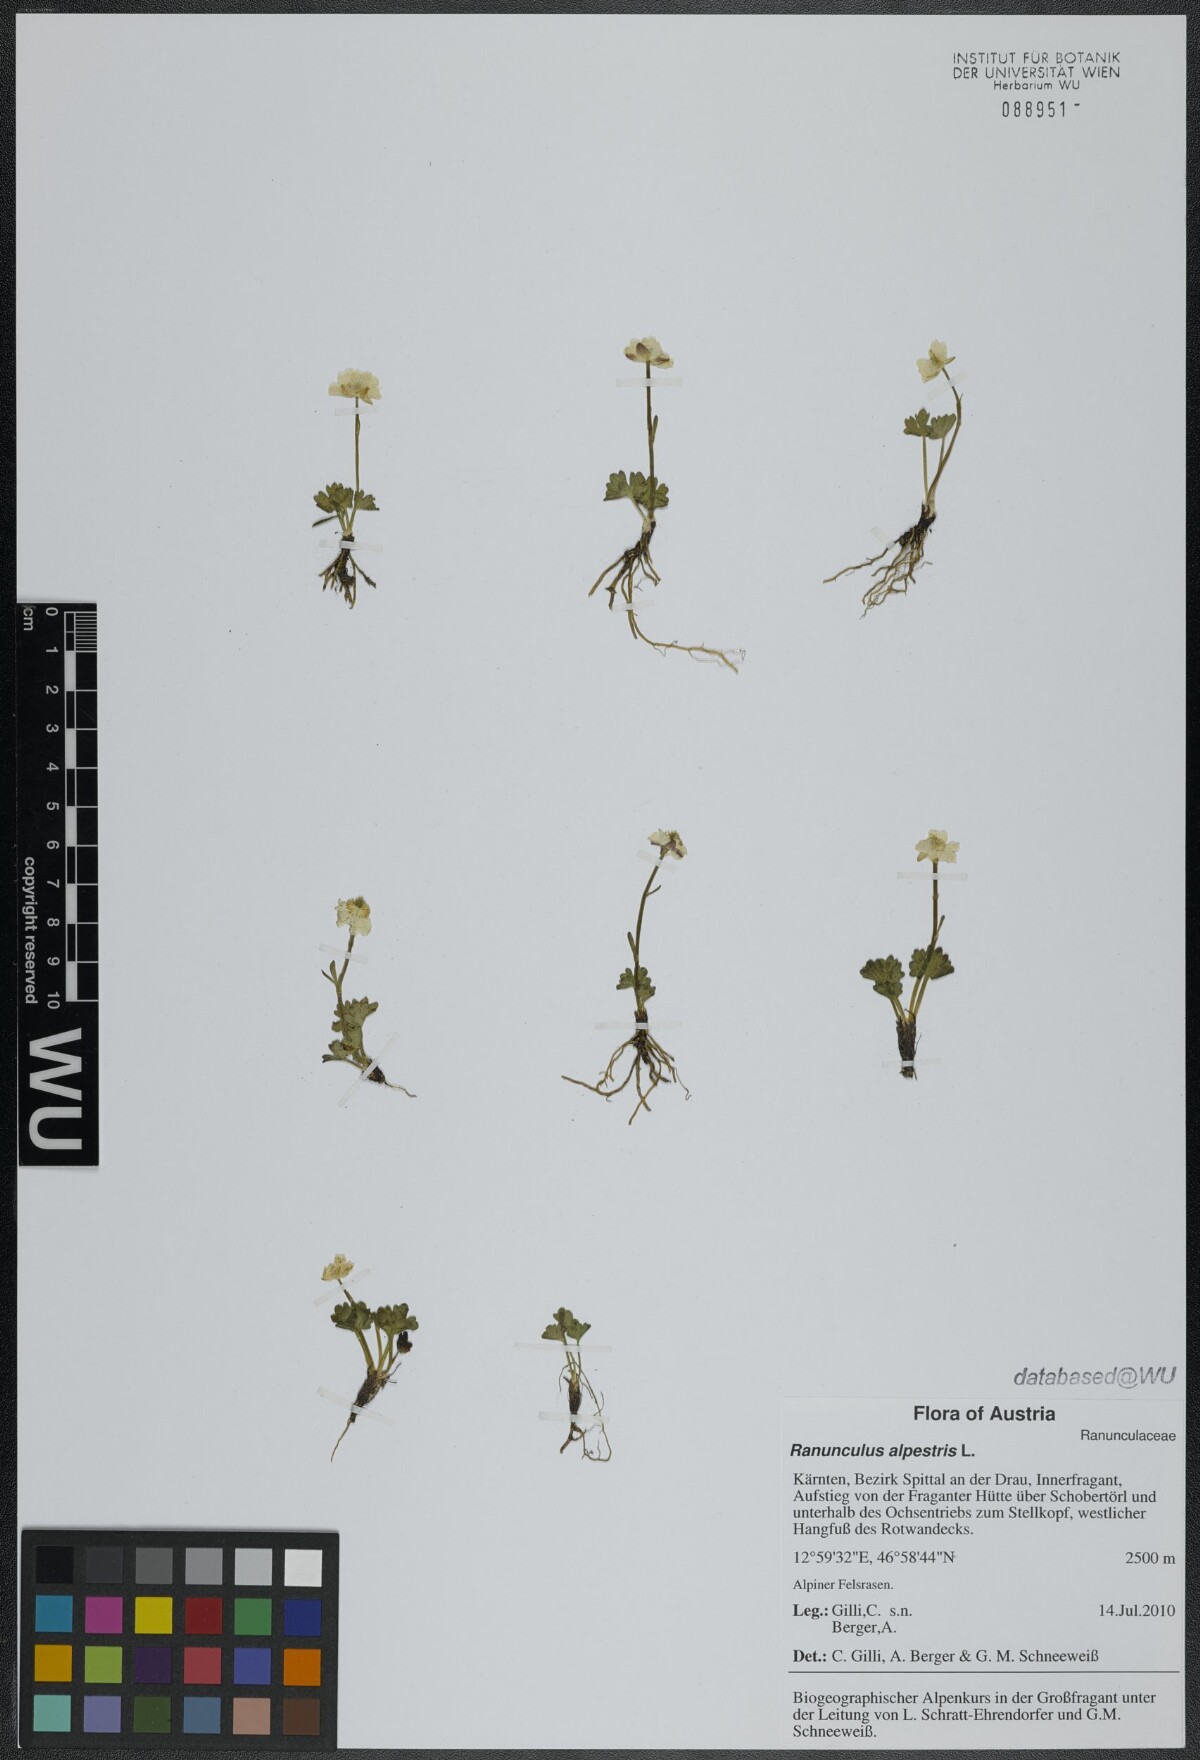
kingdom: Plantae
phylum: Tracheophyta
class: Magnoliopsida
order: Ranunculales
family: Ranunculaceae
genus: Ranunculus
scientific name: Ranunculus alpestris
